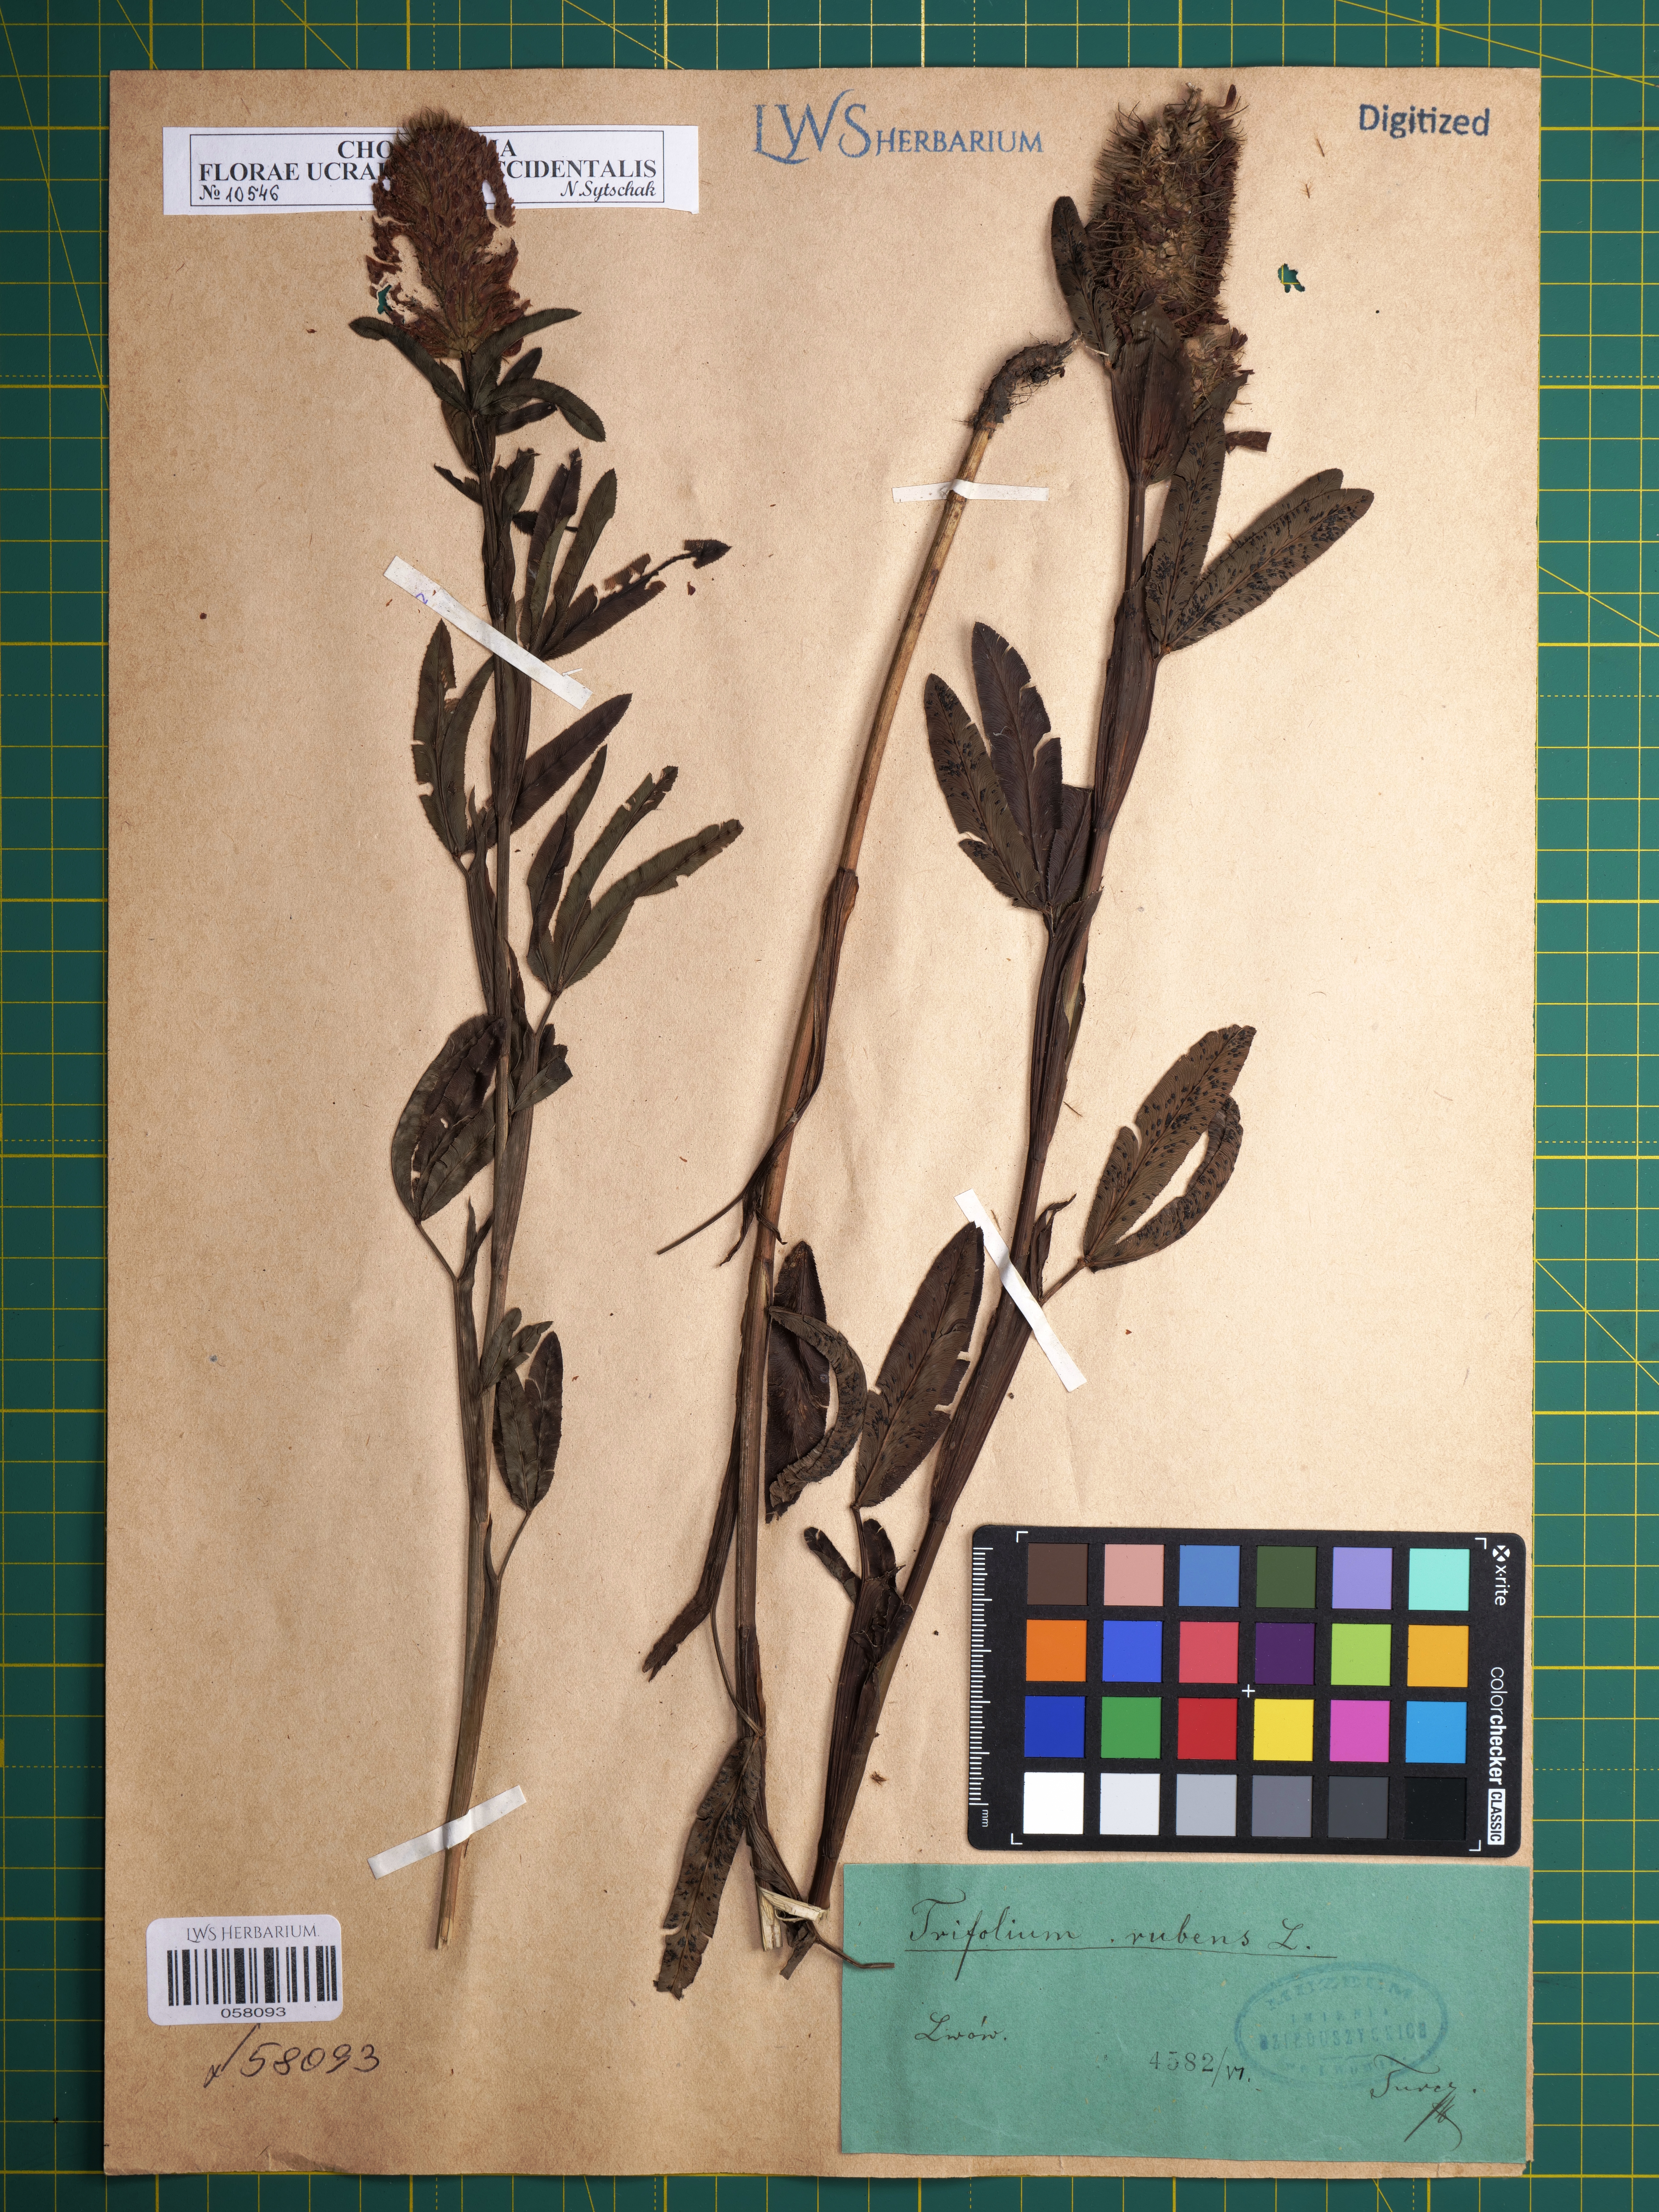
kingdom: Plantae
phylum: Tracheophyta
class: Magnoliopsida
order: Fabales
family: Fabaceae
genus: Trifolium
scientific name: Trifolium rubens
